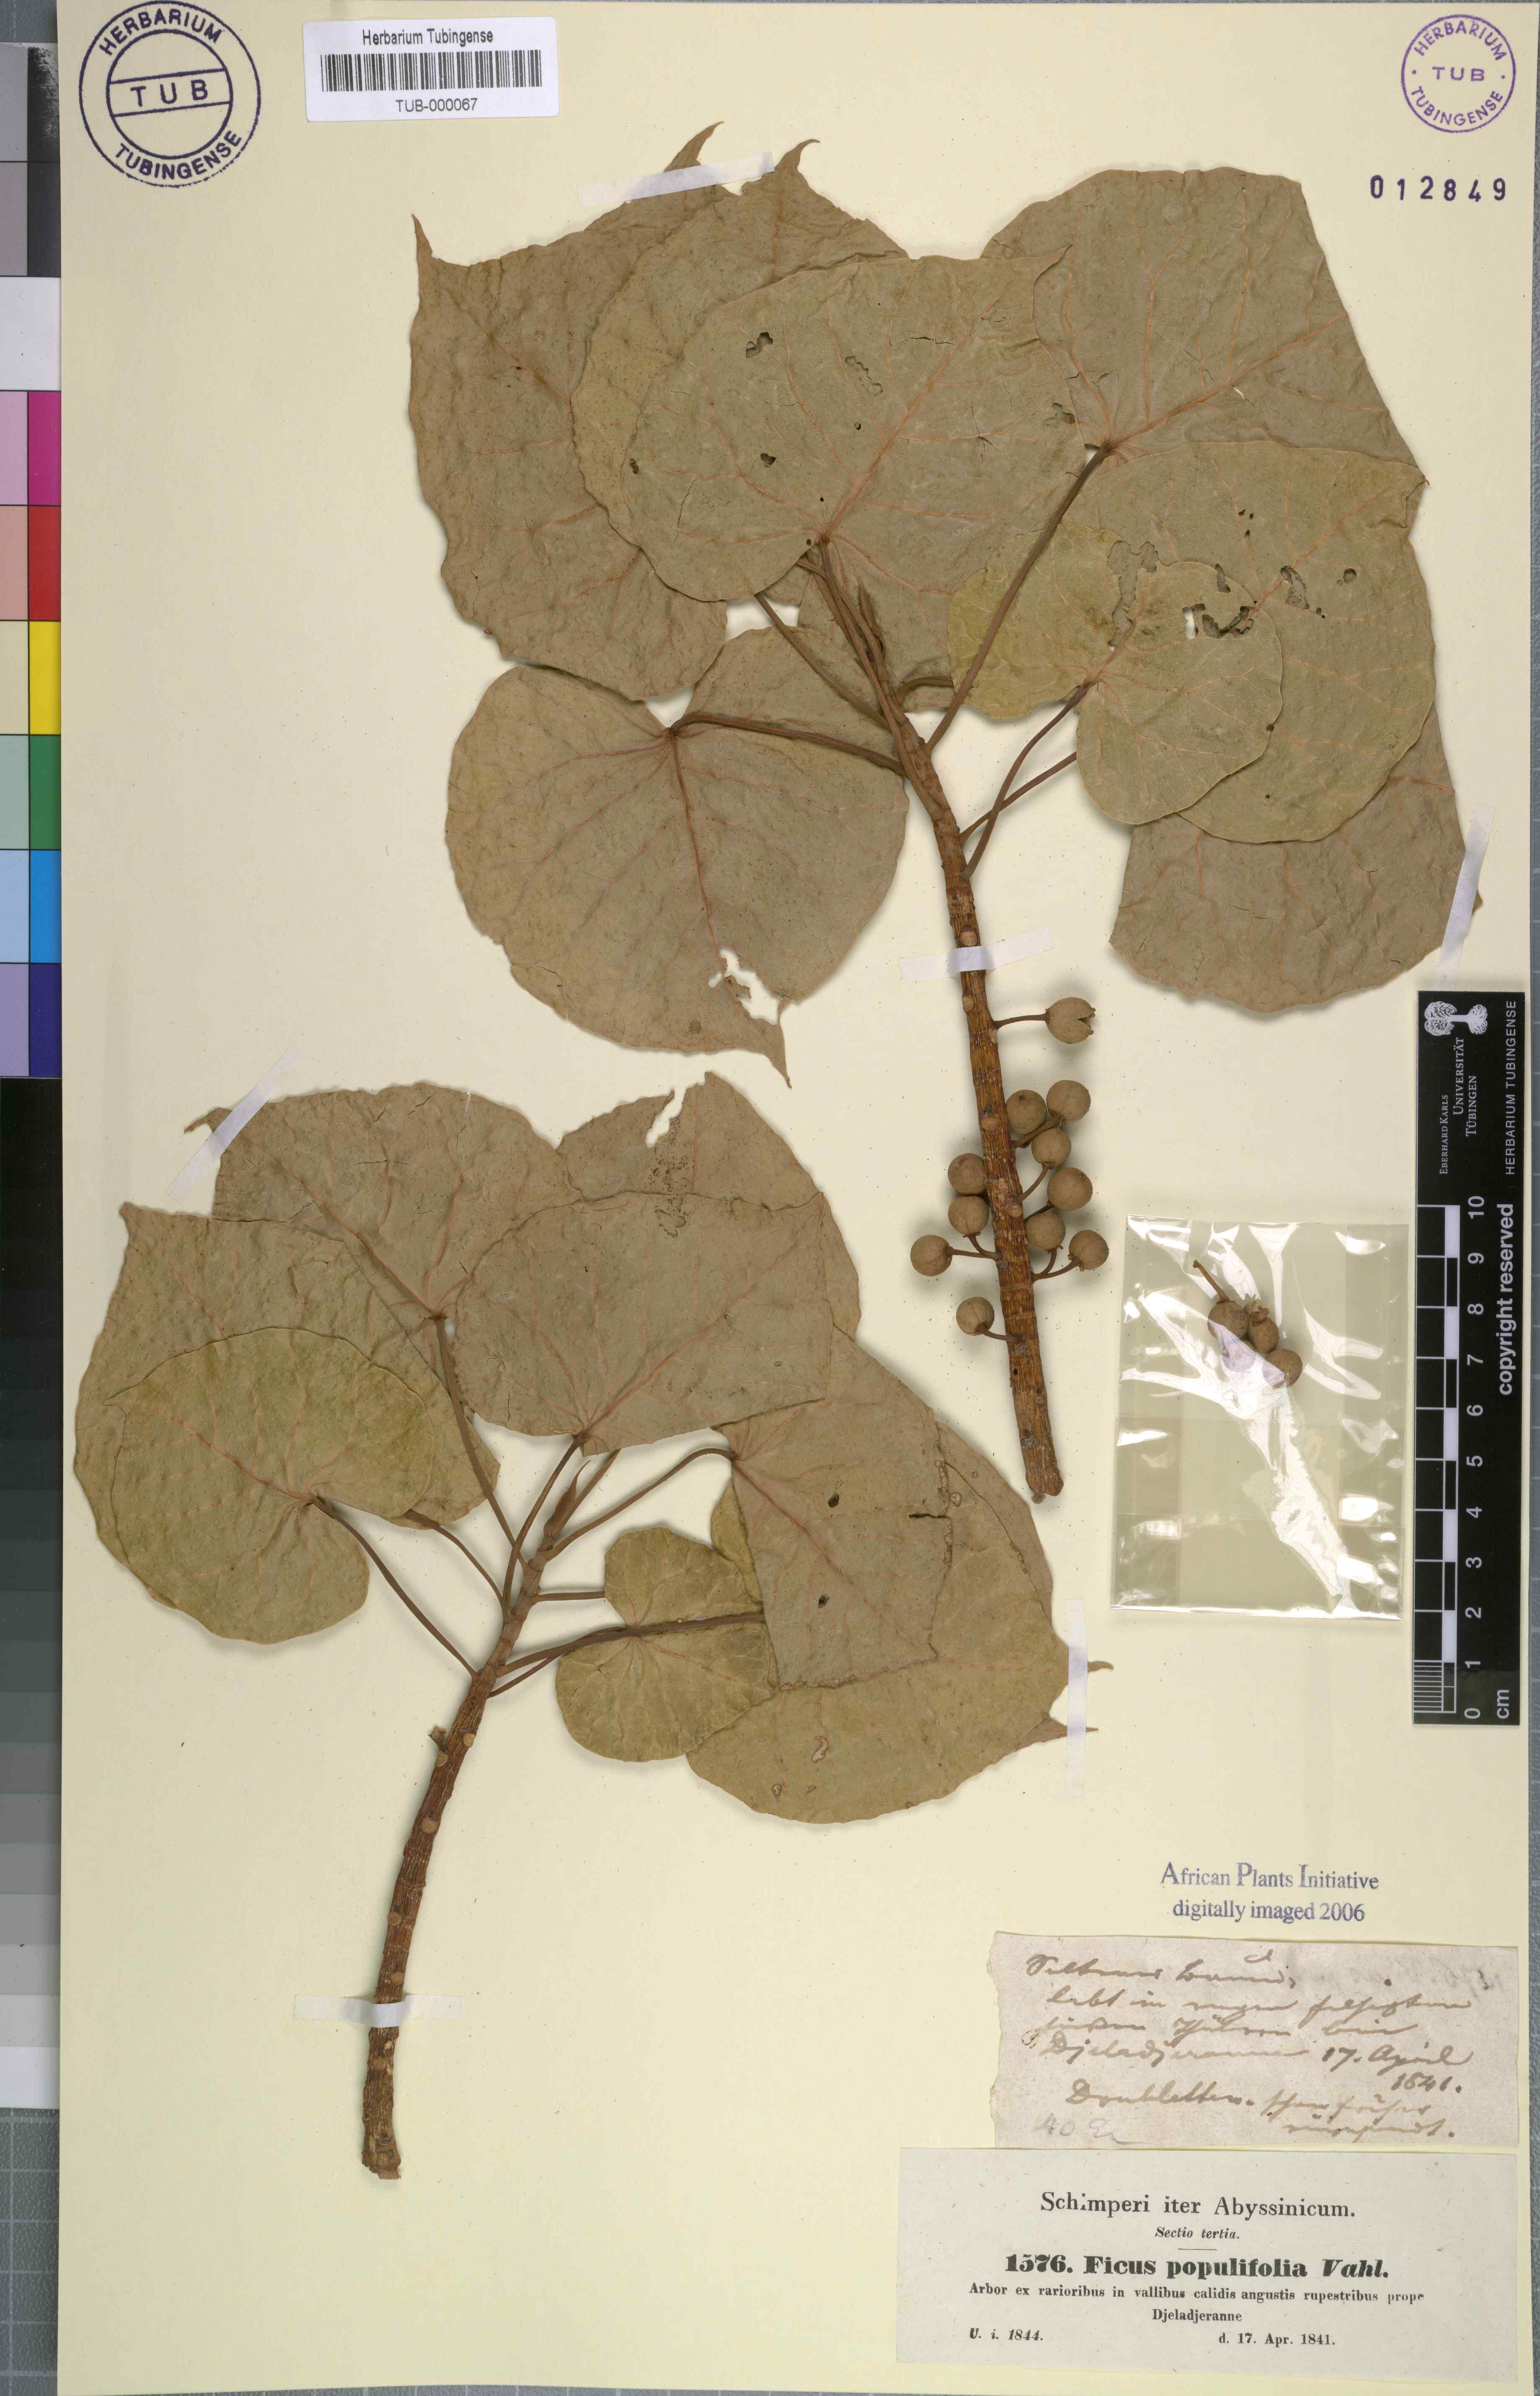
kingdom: Plantae
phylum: Tracheophyta
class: Magnoliopsida
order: Rosales
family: Moraceae
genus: Ficus
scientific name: Ficus populifolia
